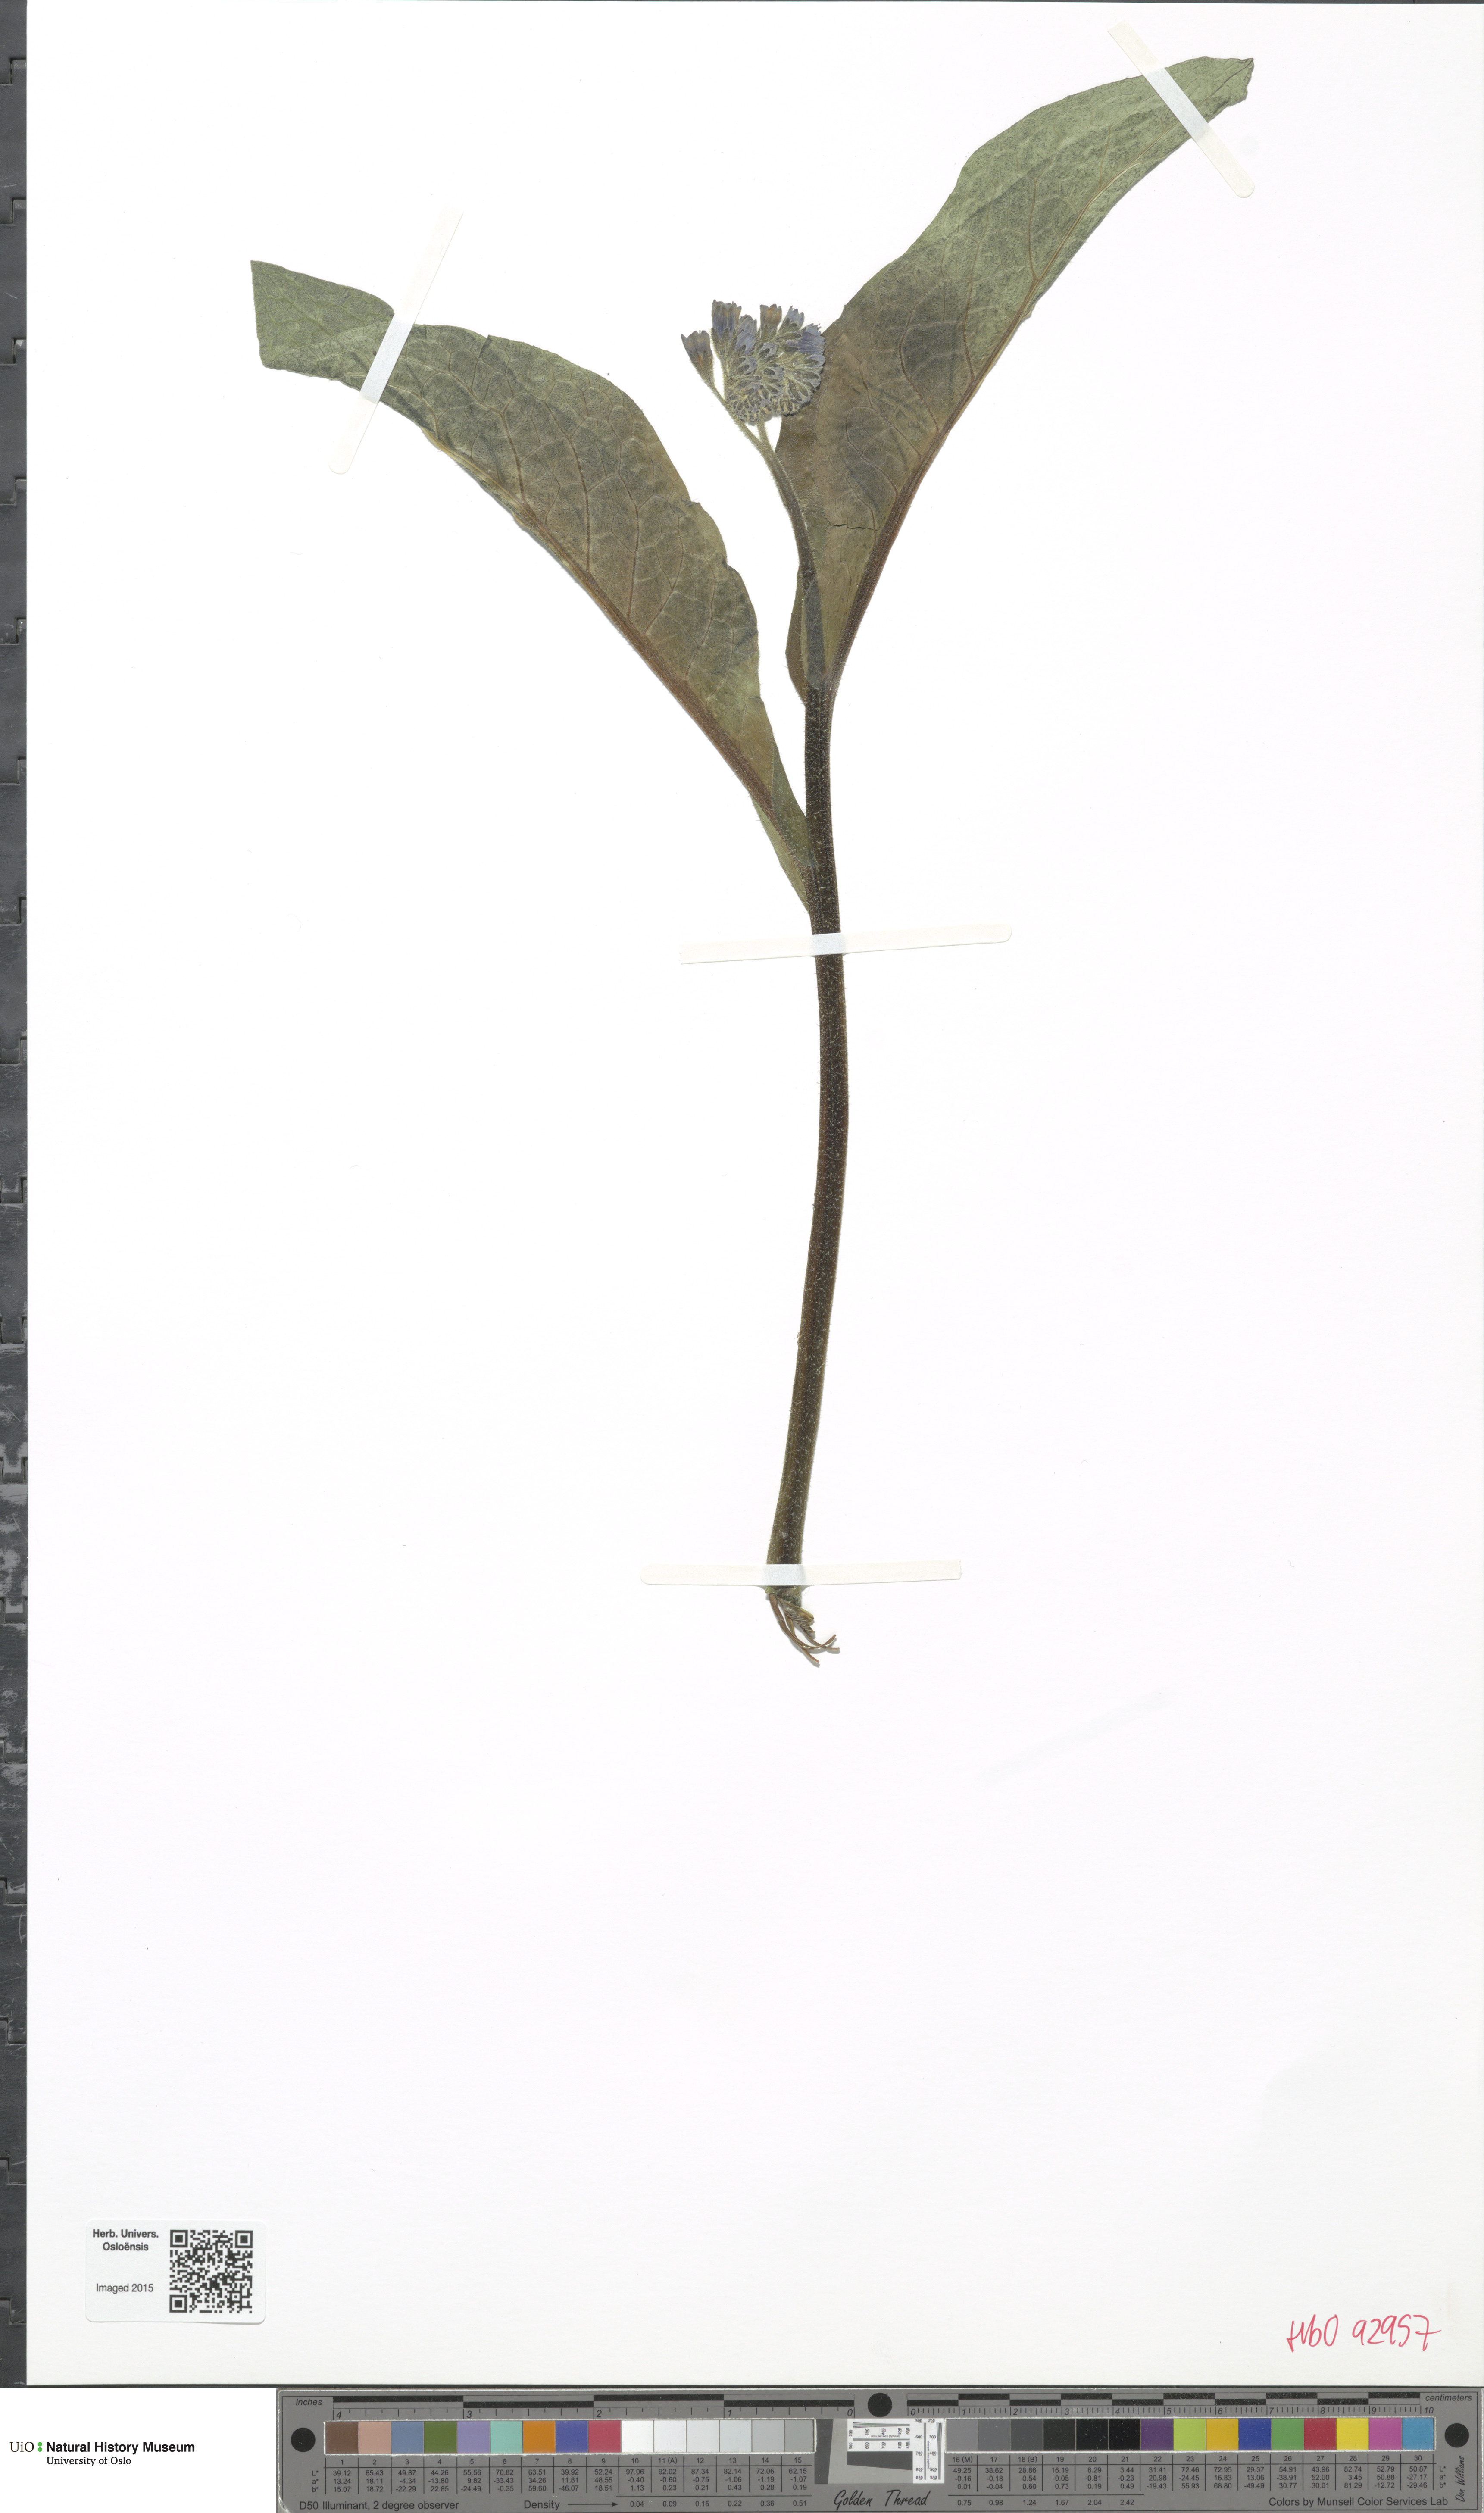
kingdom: Plantae
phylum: Tracheophyta
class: Magnoliopsida
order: Boraginales
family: Boraginaceae
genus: Symphytum
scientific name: Symphytum asperum
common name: Prickly comfrey
